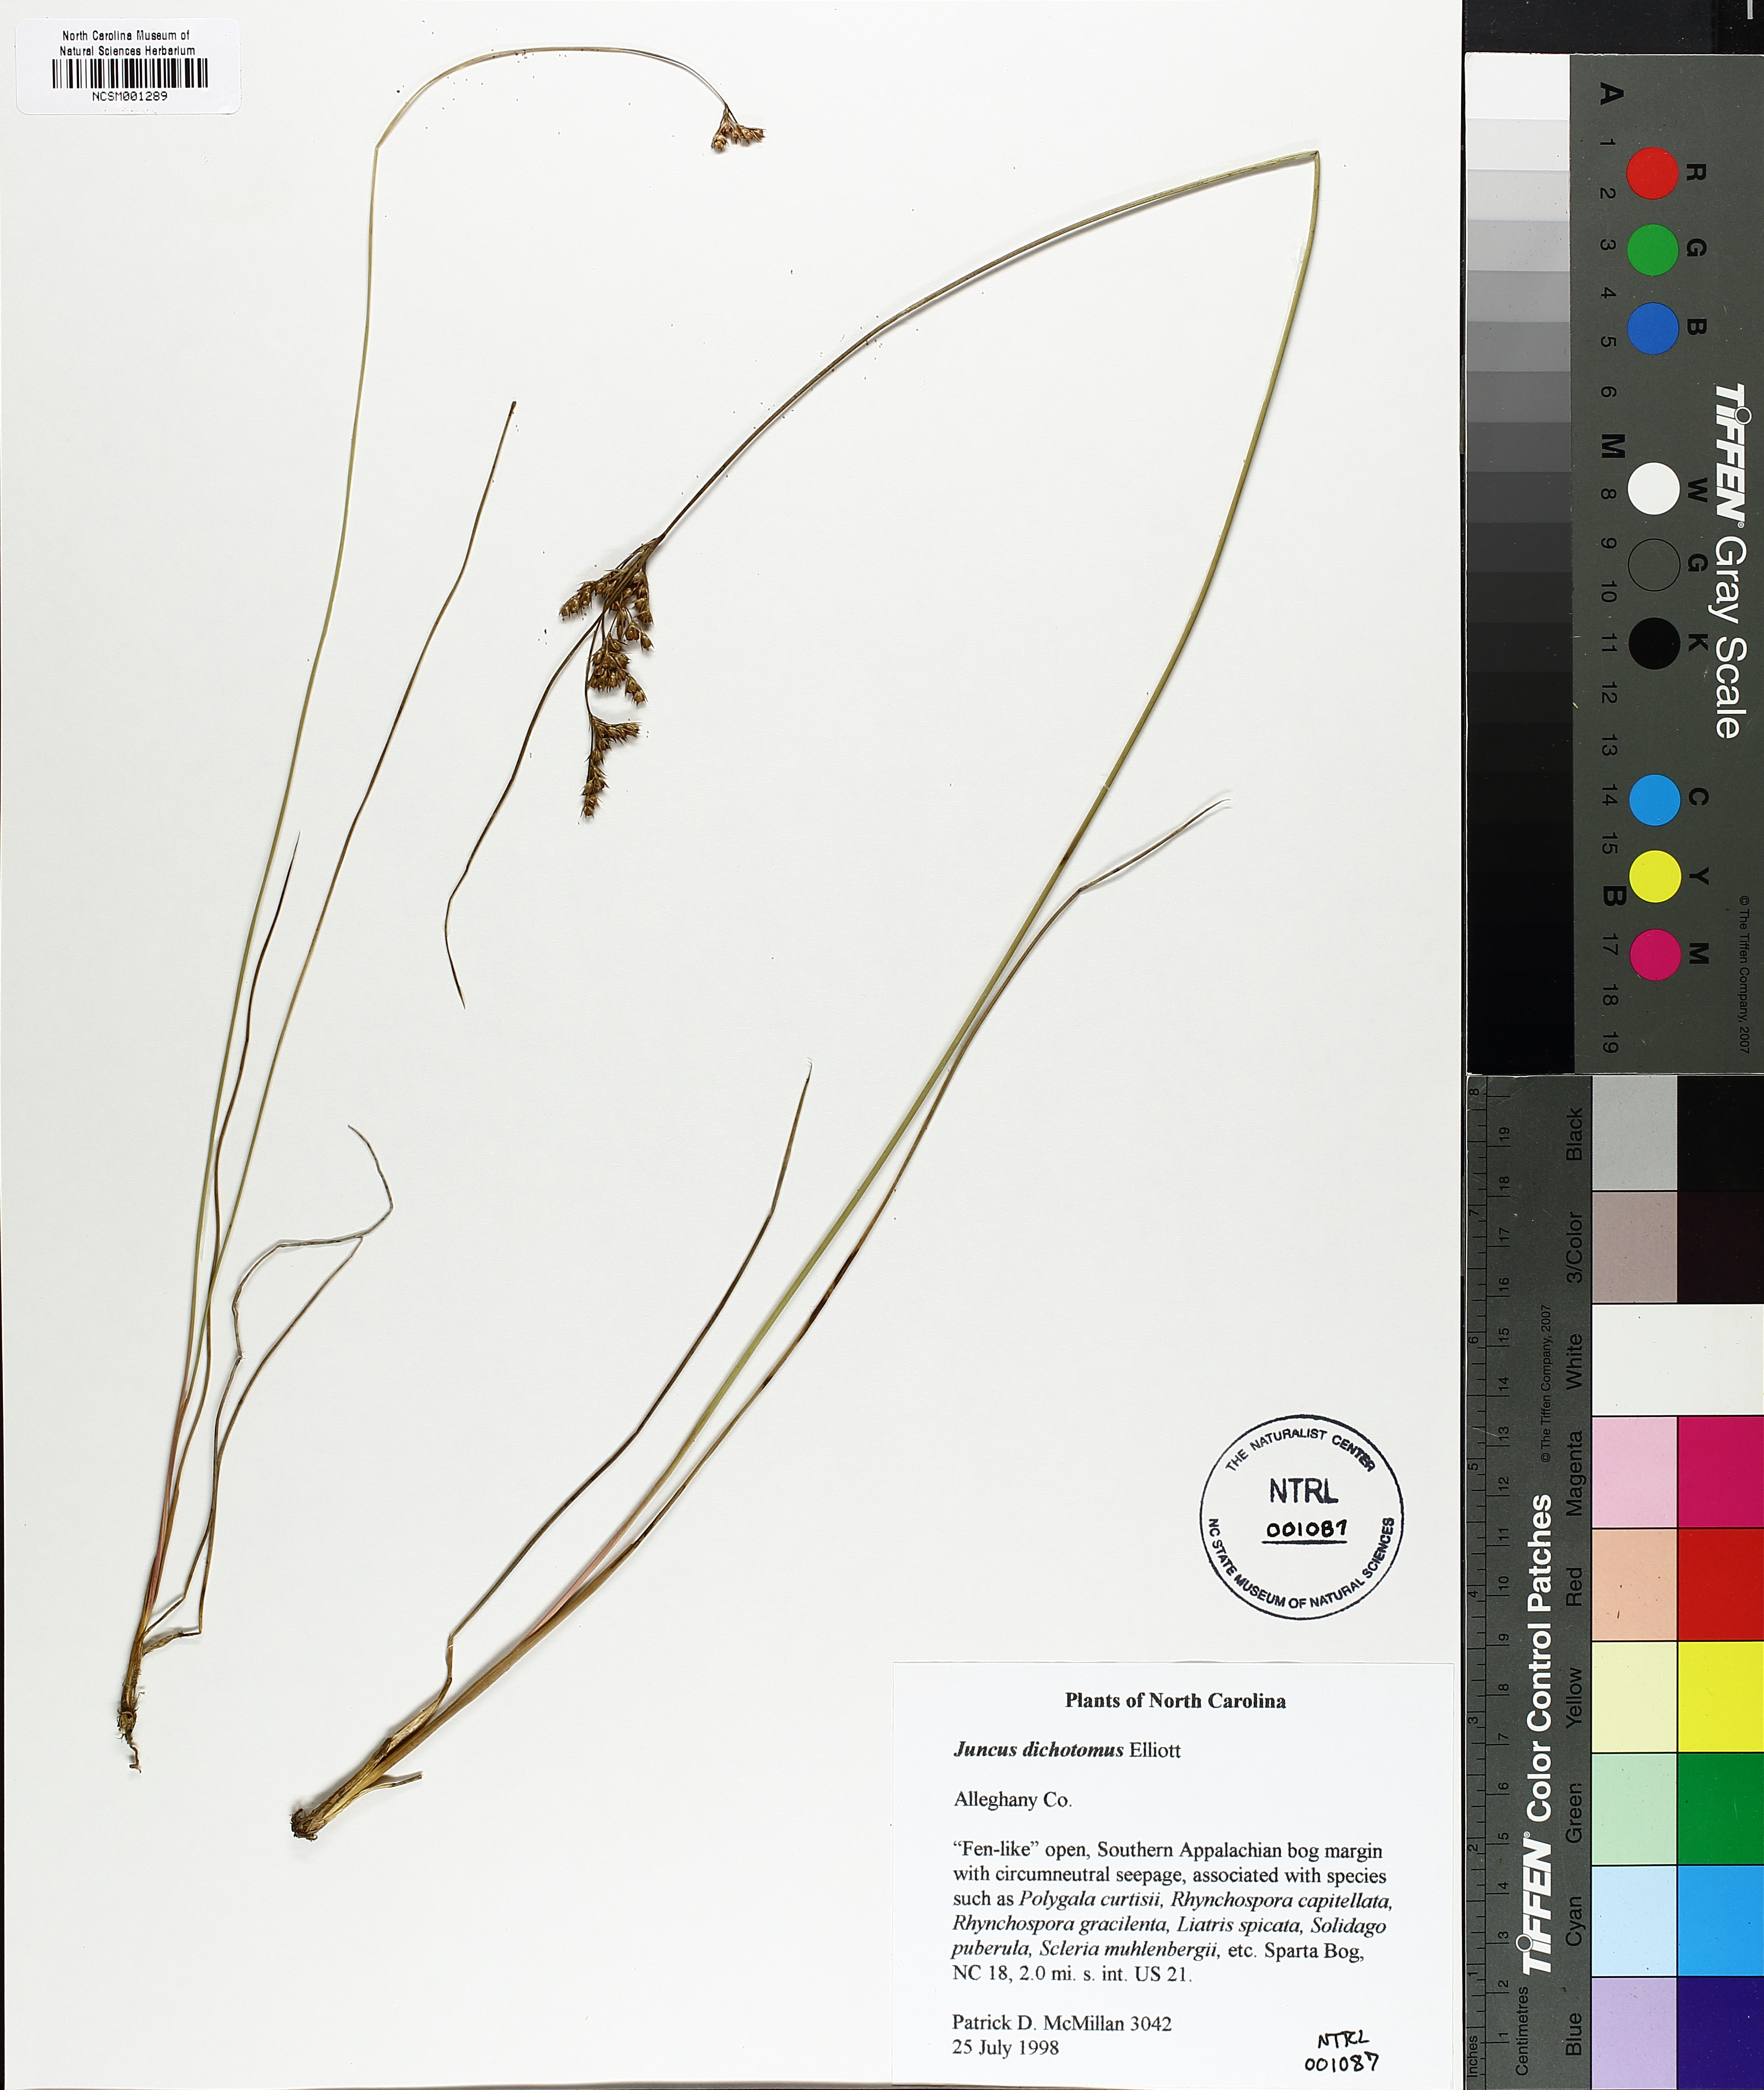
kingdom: Plantae
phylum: Tracheophyta
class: Liliopsida
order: Poales
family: Juncaceae
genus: Juncus
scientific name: Juncus dichotomus
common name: Forked rush
